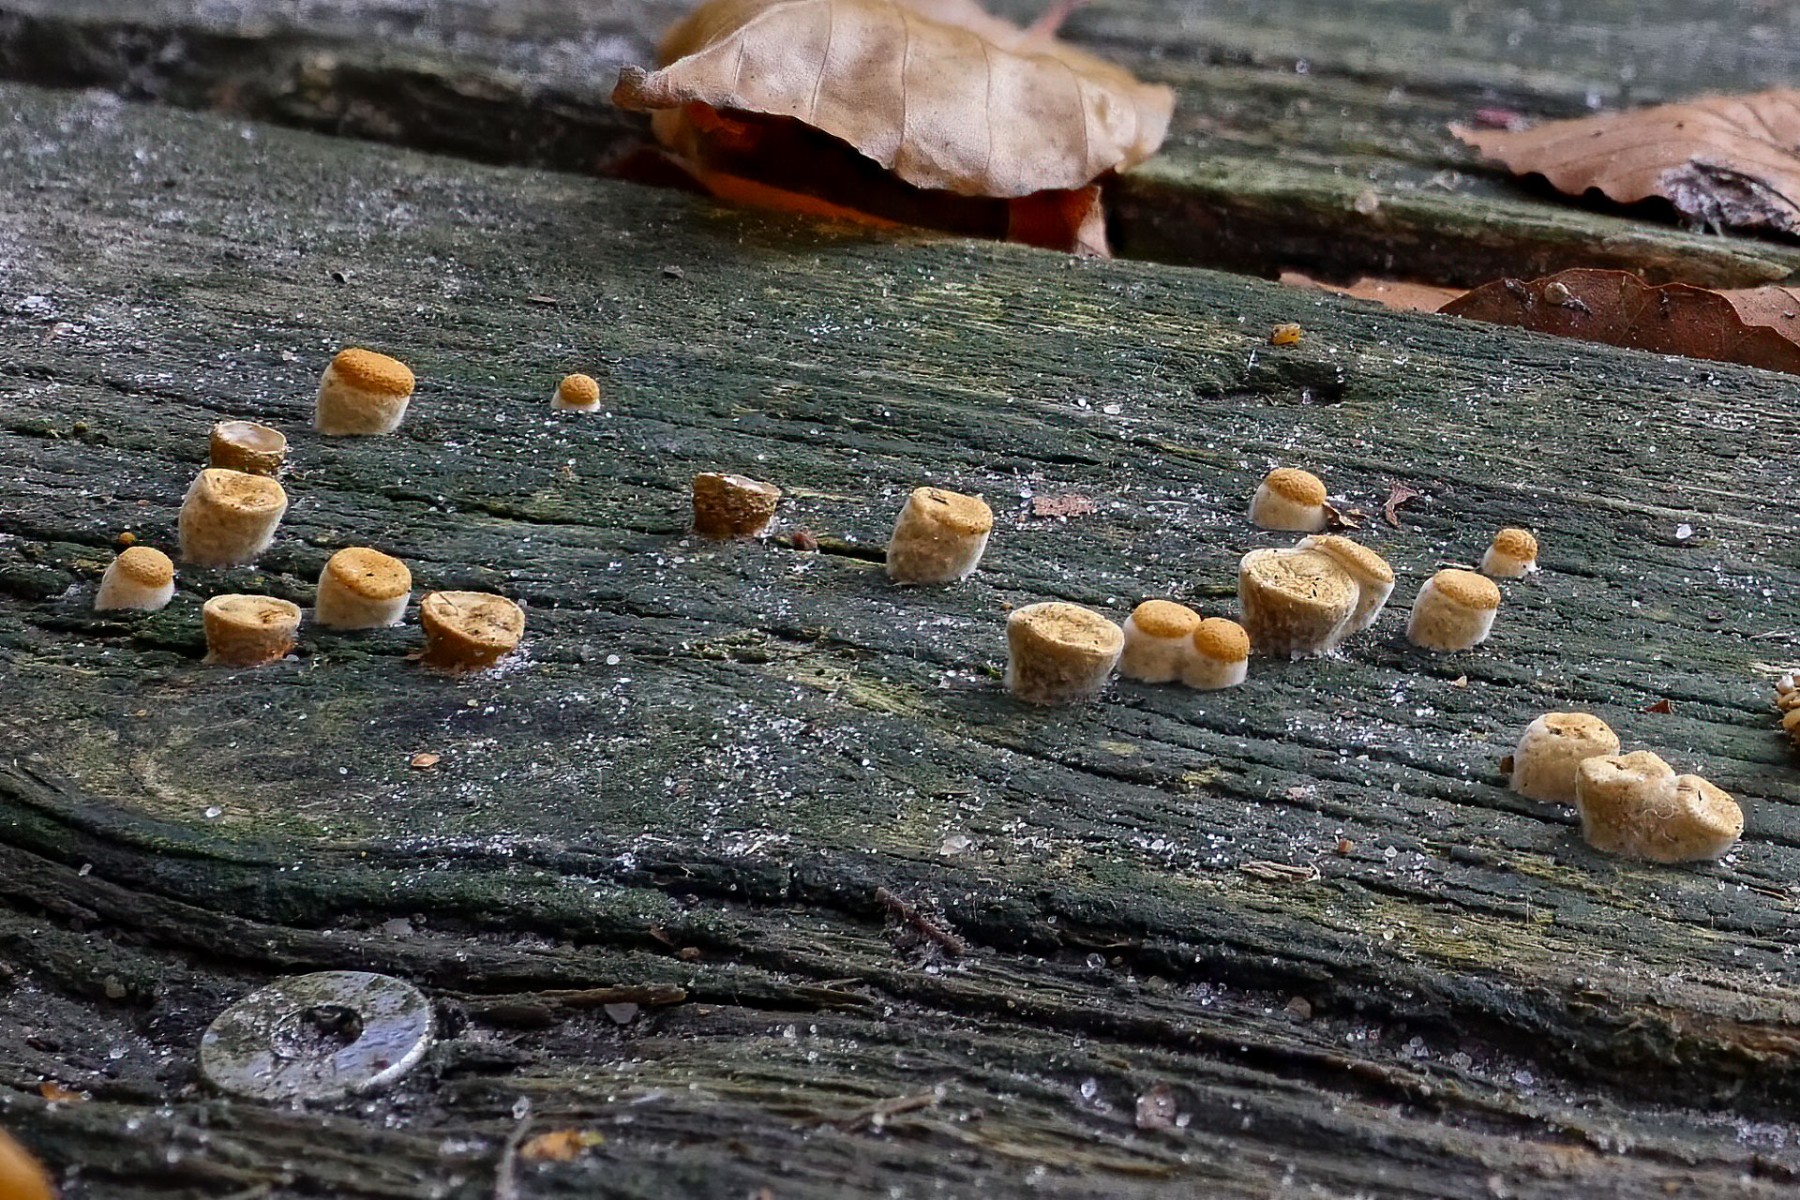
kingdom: Fungi
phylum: Basidiomycota
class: Agaricomycetes
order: Agaricales
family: Nidulariaceae
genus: Crucibulum
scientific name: Crucibulum crucibuliforme
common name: krukkesvamp
